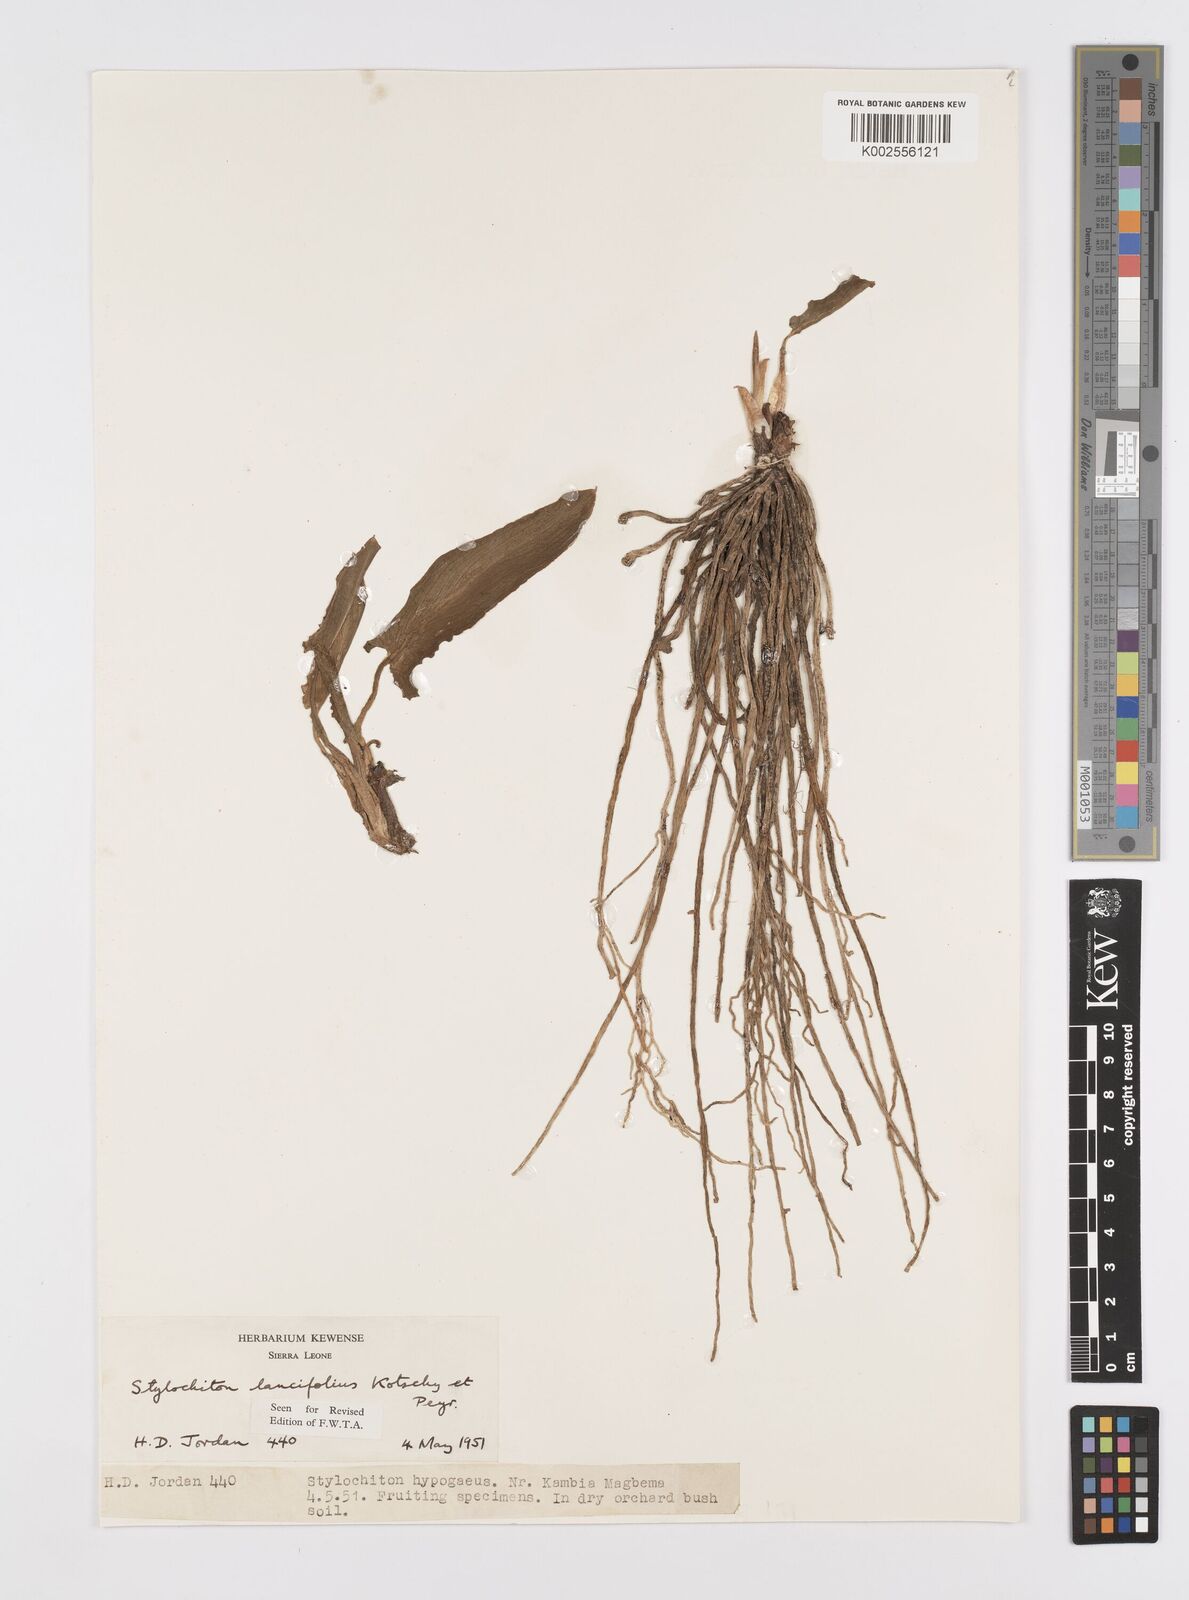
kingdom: Plantae
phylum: Tracheophyta
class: Liliopsida
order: Alismatales
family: Araceae
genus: Stylochaeton
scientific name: Stylochaeton lancifolium
